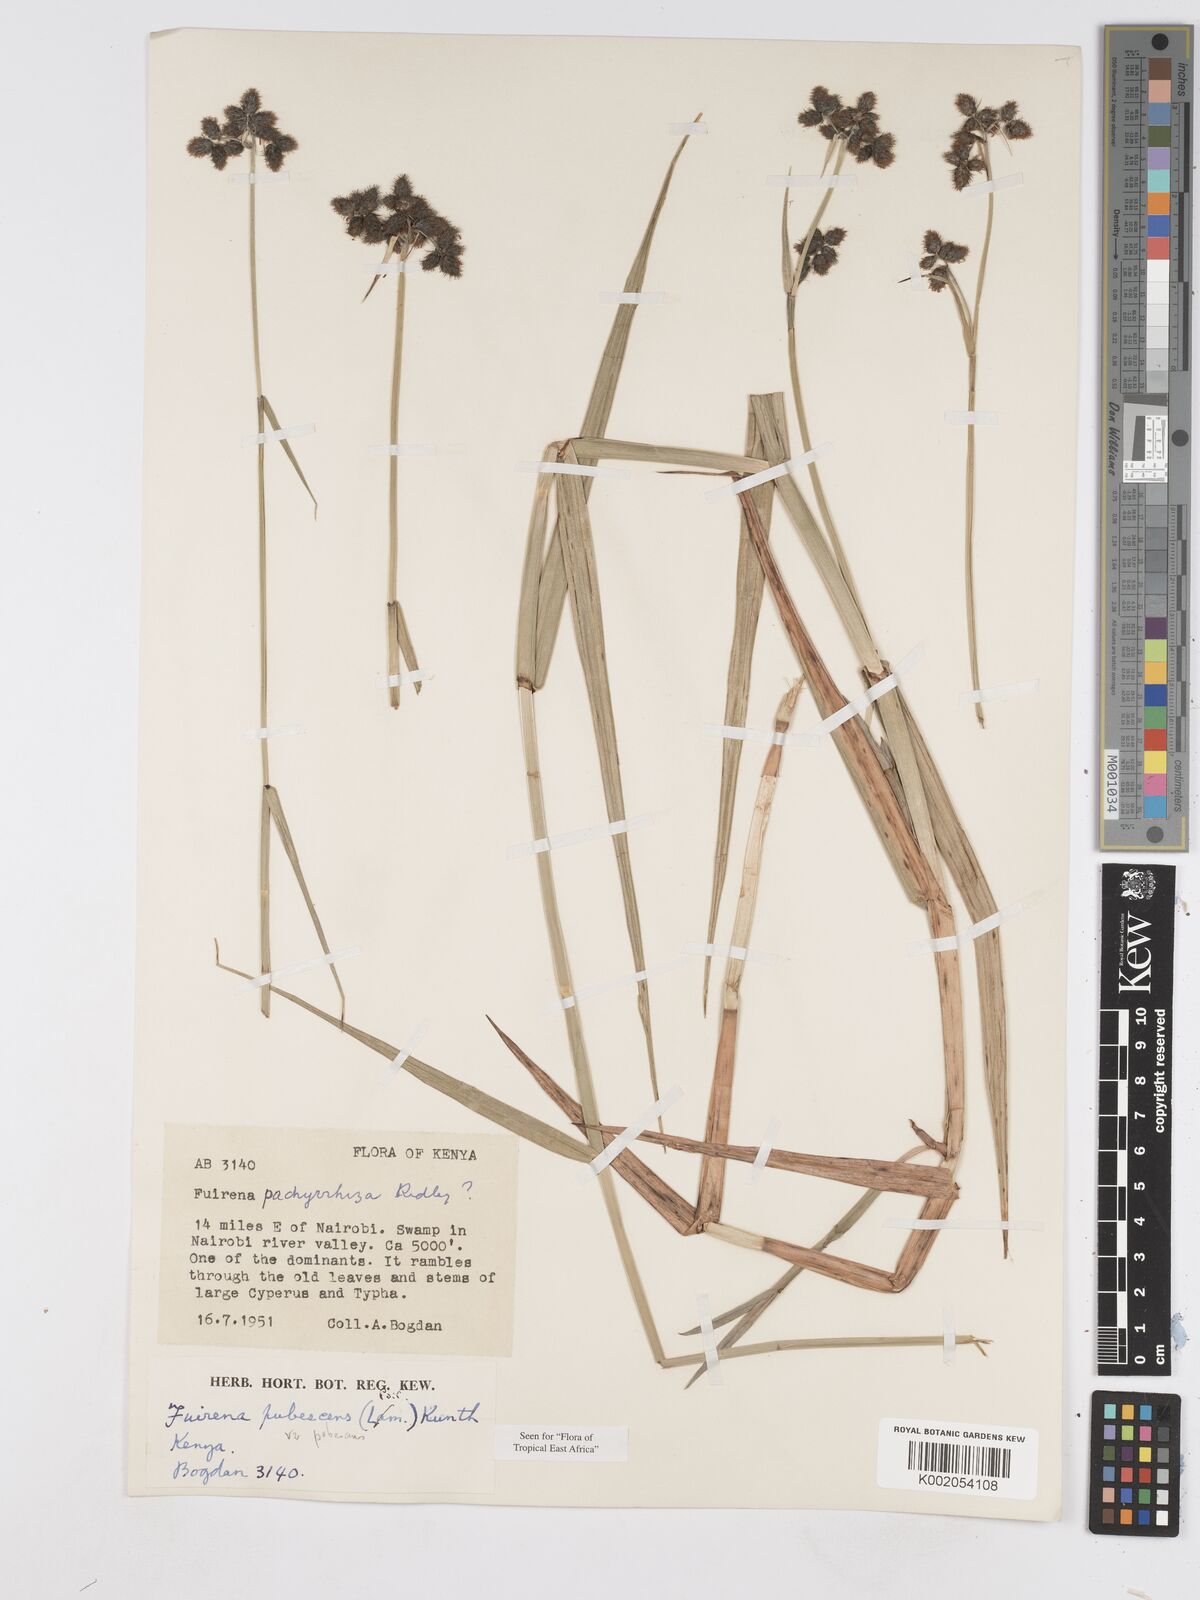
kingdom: Plantae
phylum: Tracheophyta
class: Liliopsida
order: Poales
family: Cyperaceae
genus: Fuirena
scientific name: Fuirena pubescens
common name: Hairy sedge
